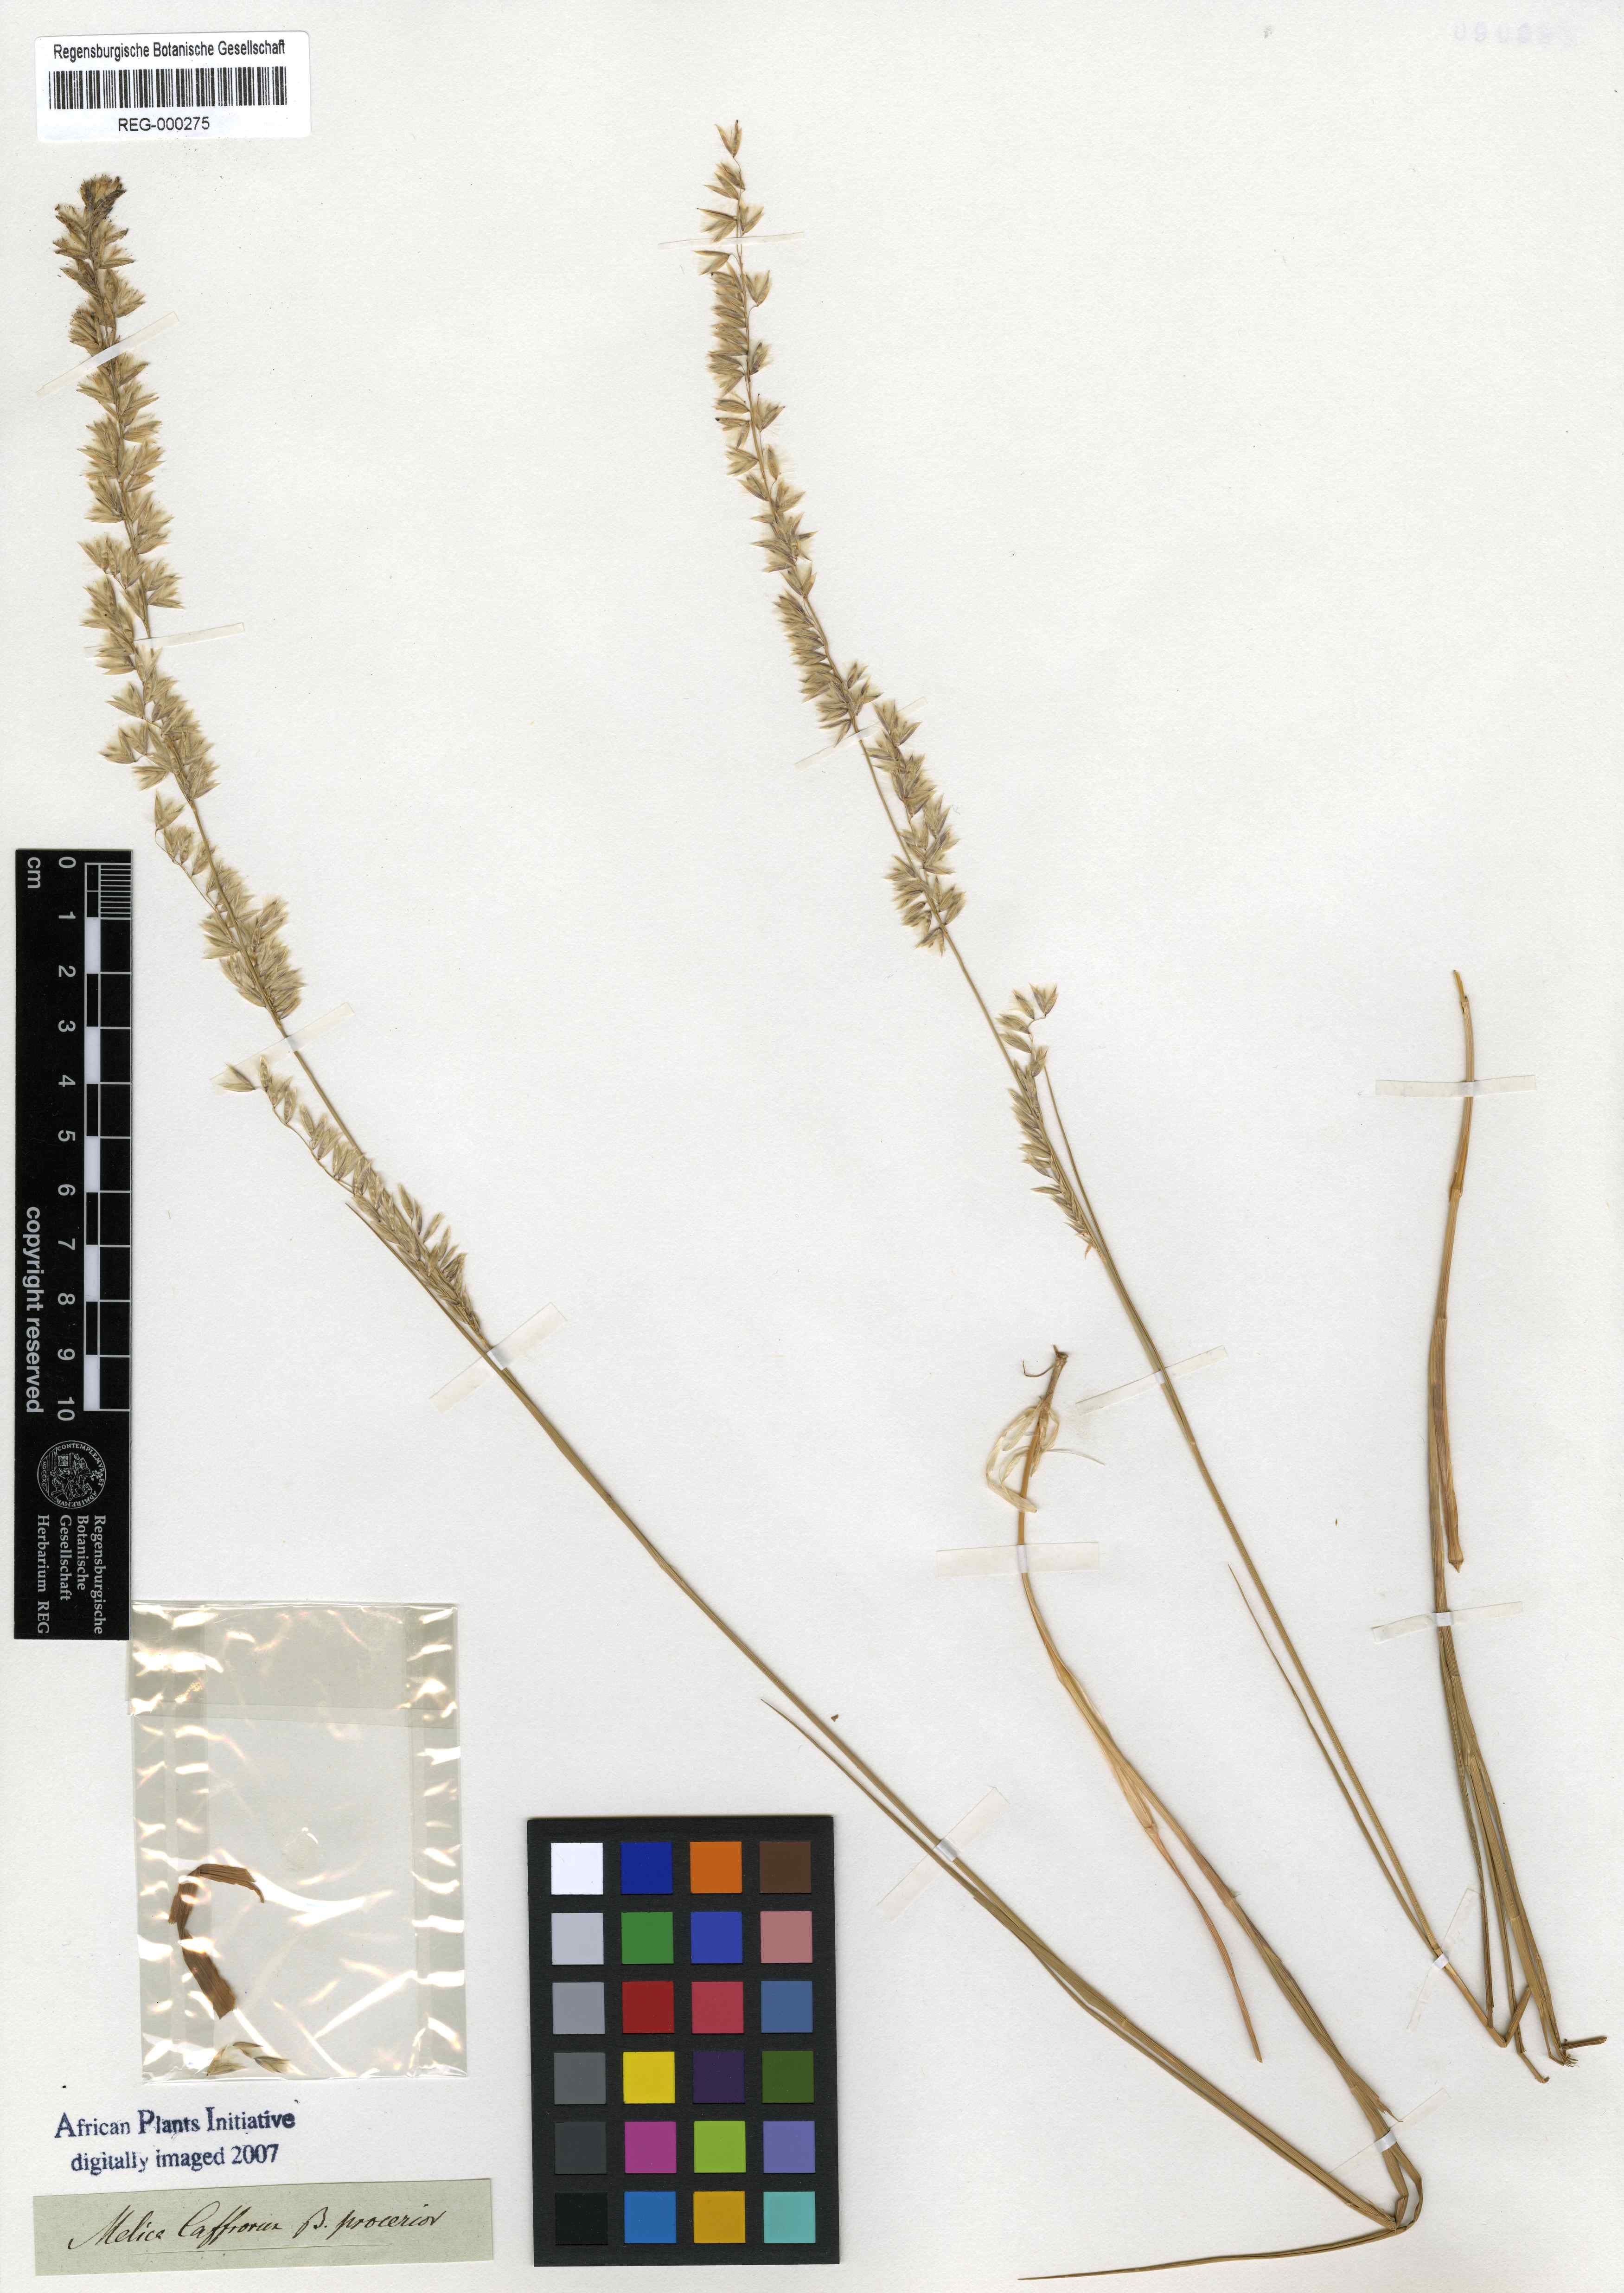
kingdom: Plantae
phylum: Tracheophyta
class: Liliopsida
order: Poales
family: Poaceae
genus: Melica
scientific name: Melica racemosa
